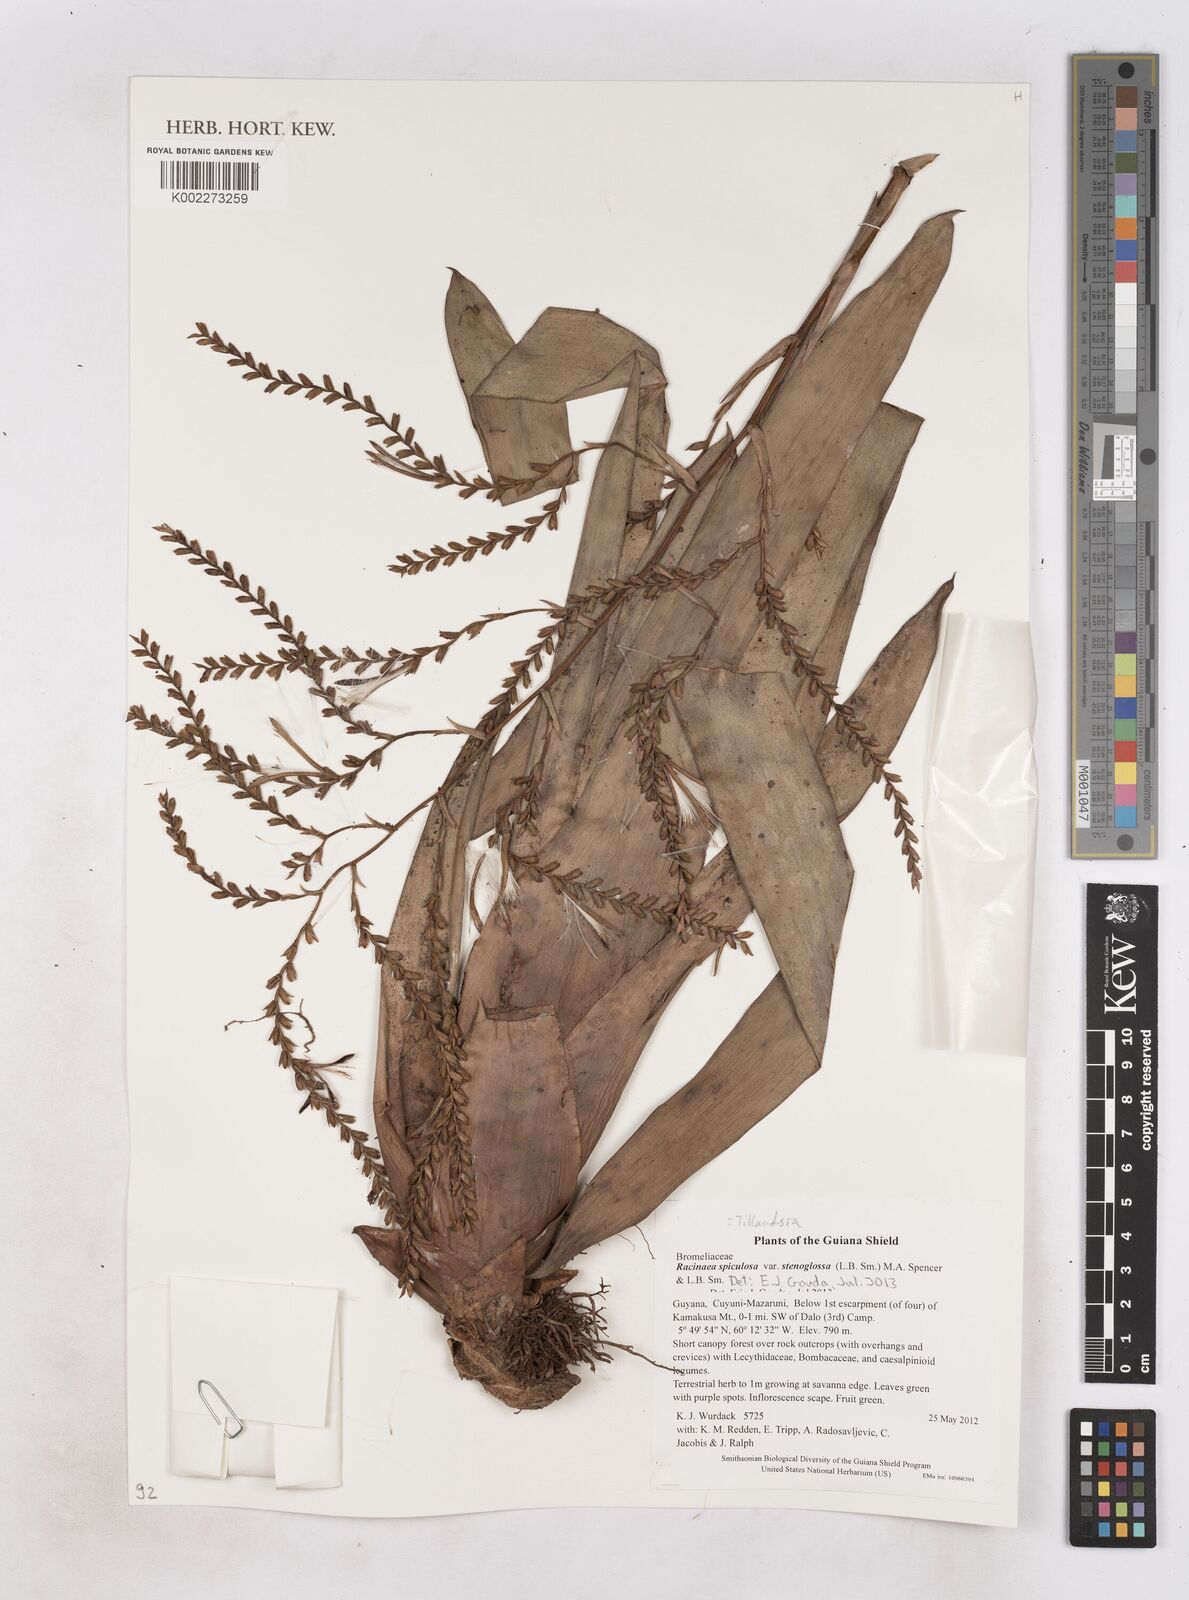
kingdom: Plantae
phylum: Tracheophyta
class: Liliopsida
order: Poales
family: Bromeliaceae
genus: Racinaea
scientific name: Racinaea spiculosa
